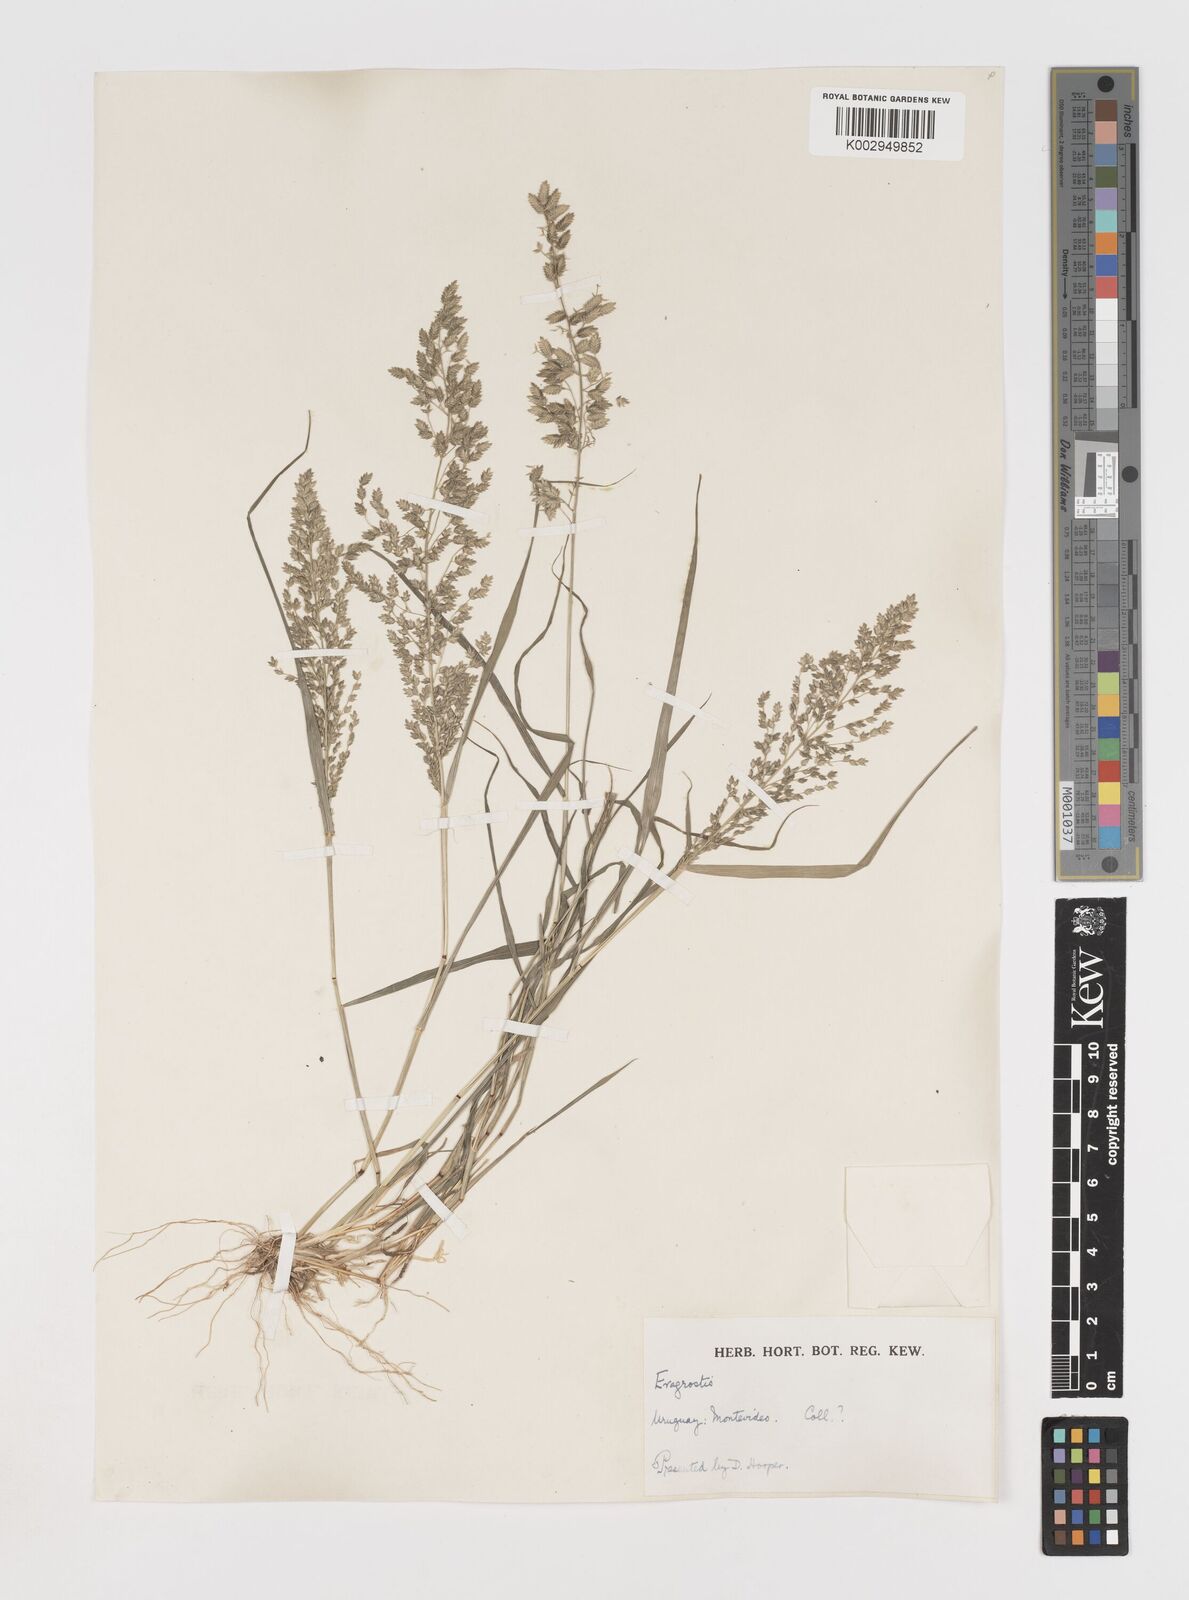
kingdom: Plantae
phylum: Tracheophyta
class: Liliopsida
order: Poales
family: Poaceae
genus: Eragrostis
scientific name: Eragrostis cilianensis
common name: Stinkgrass
